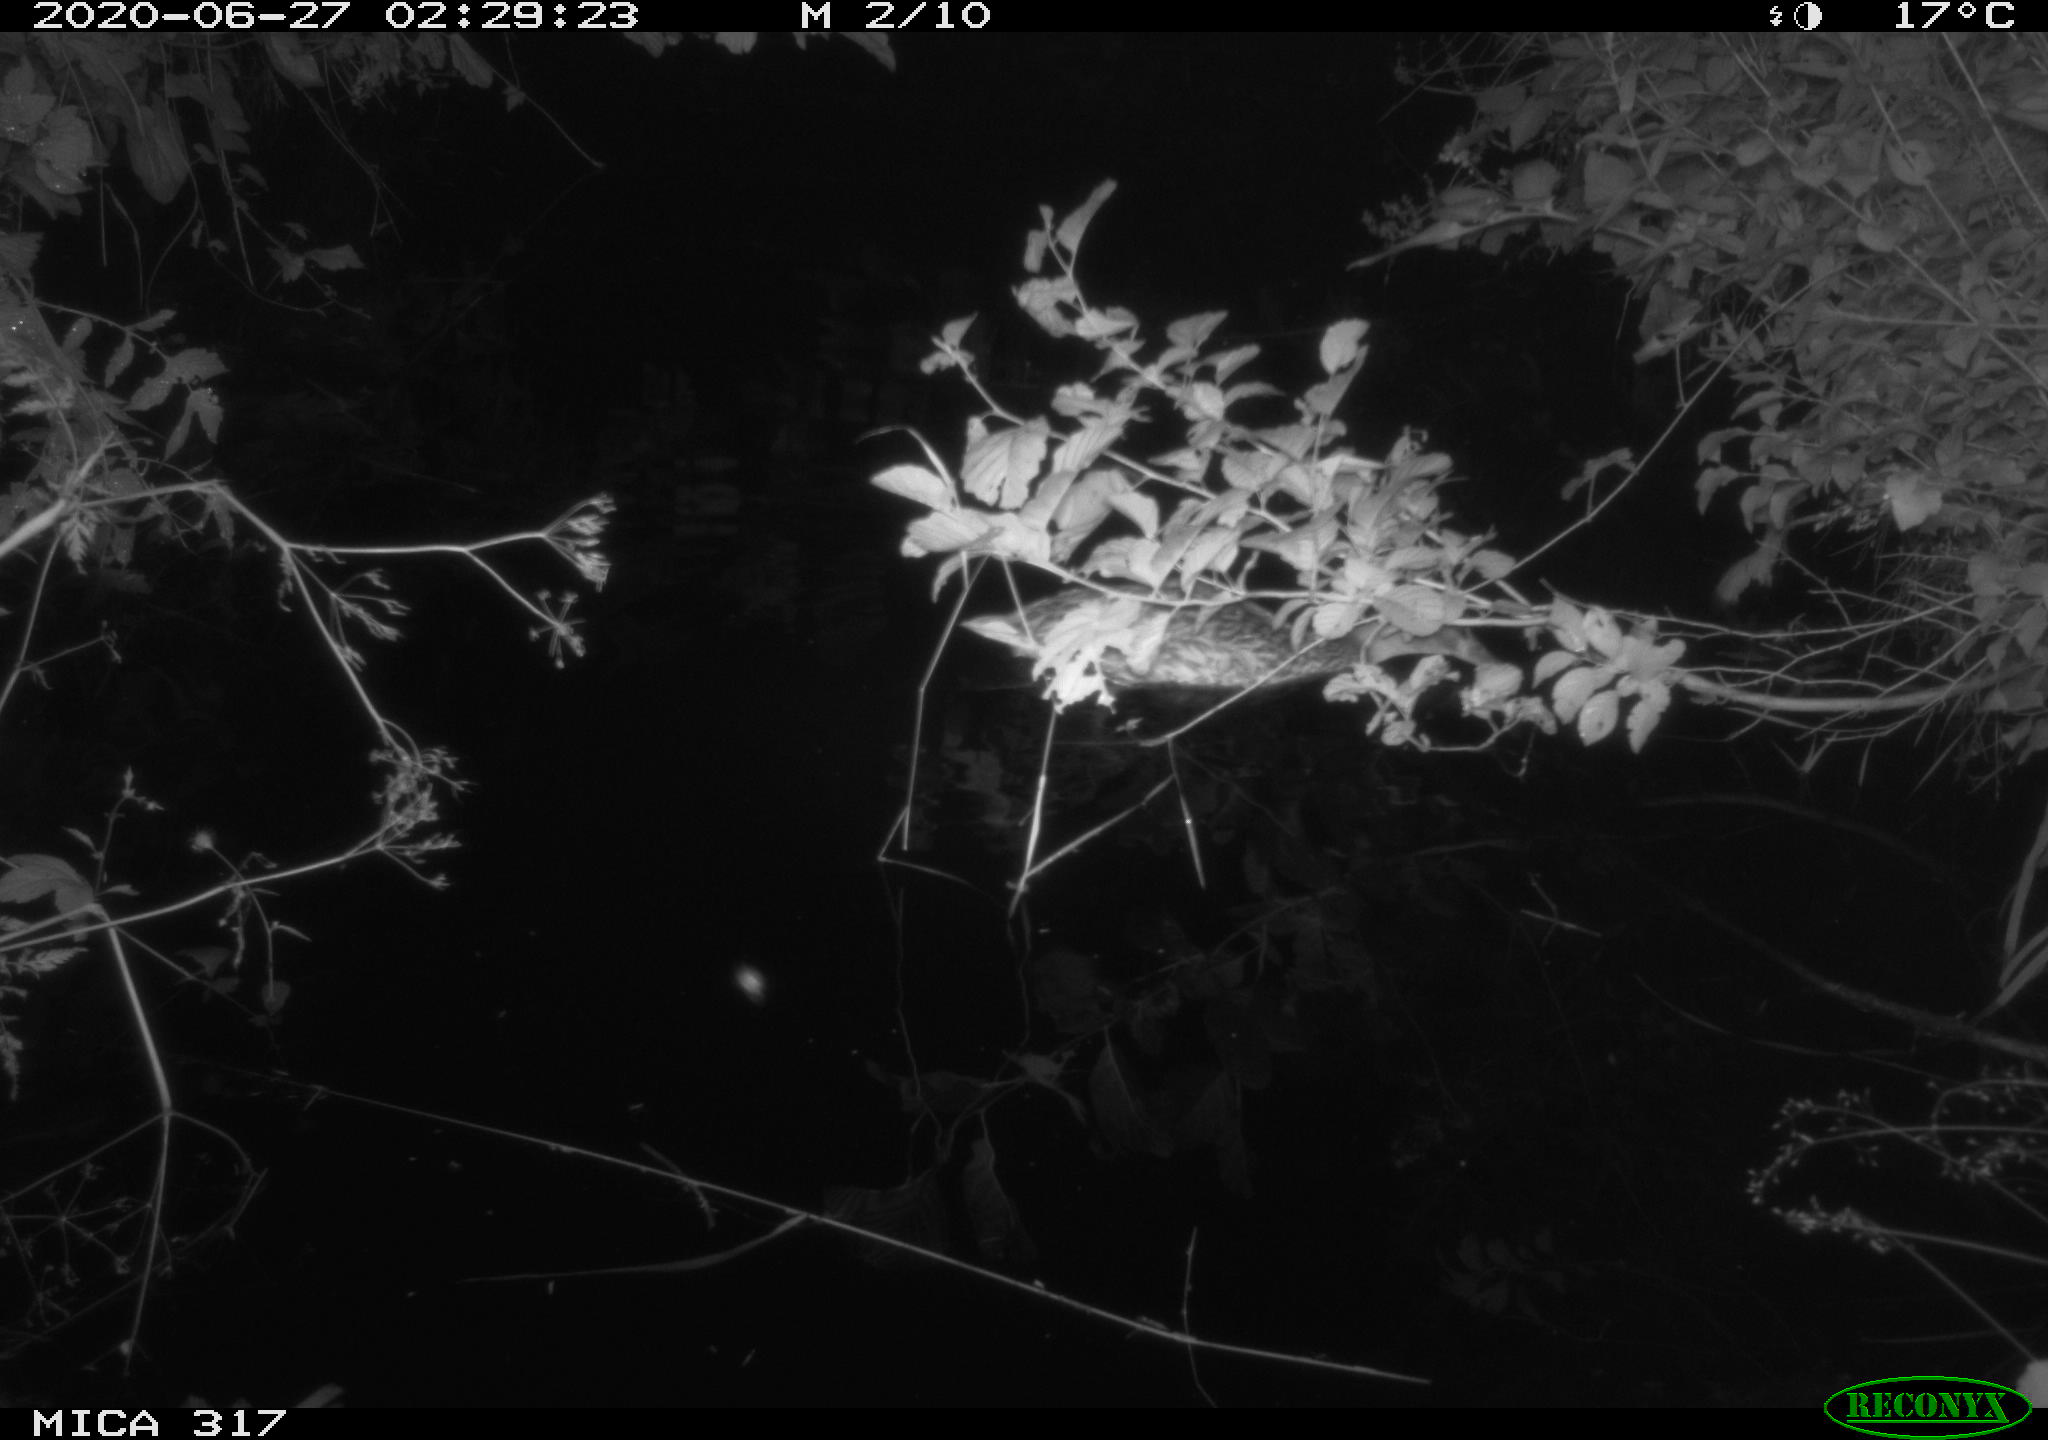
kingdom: Animalia
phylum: Chordata
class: Aves
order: Anseriformes
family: Anatidae
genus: Anas
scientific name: Anas platyrhynchos
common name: Mallard
